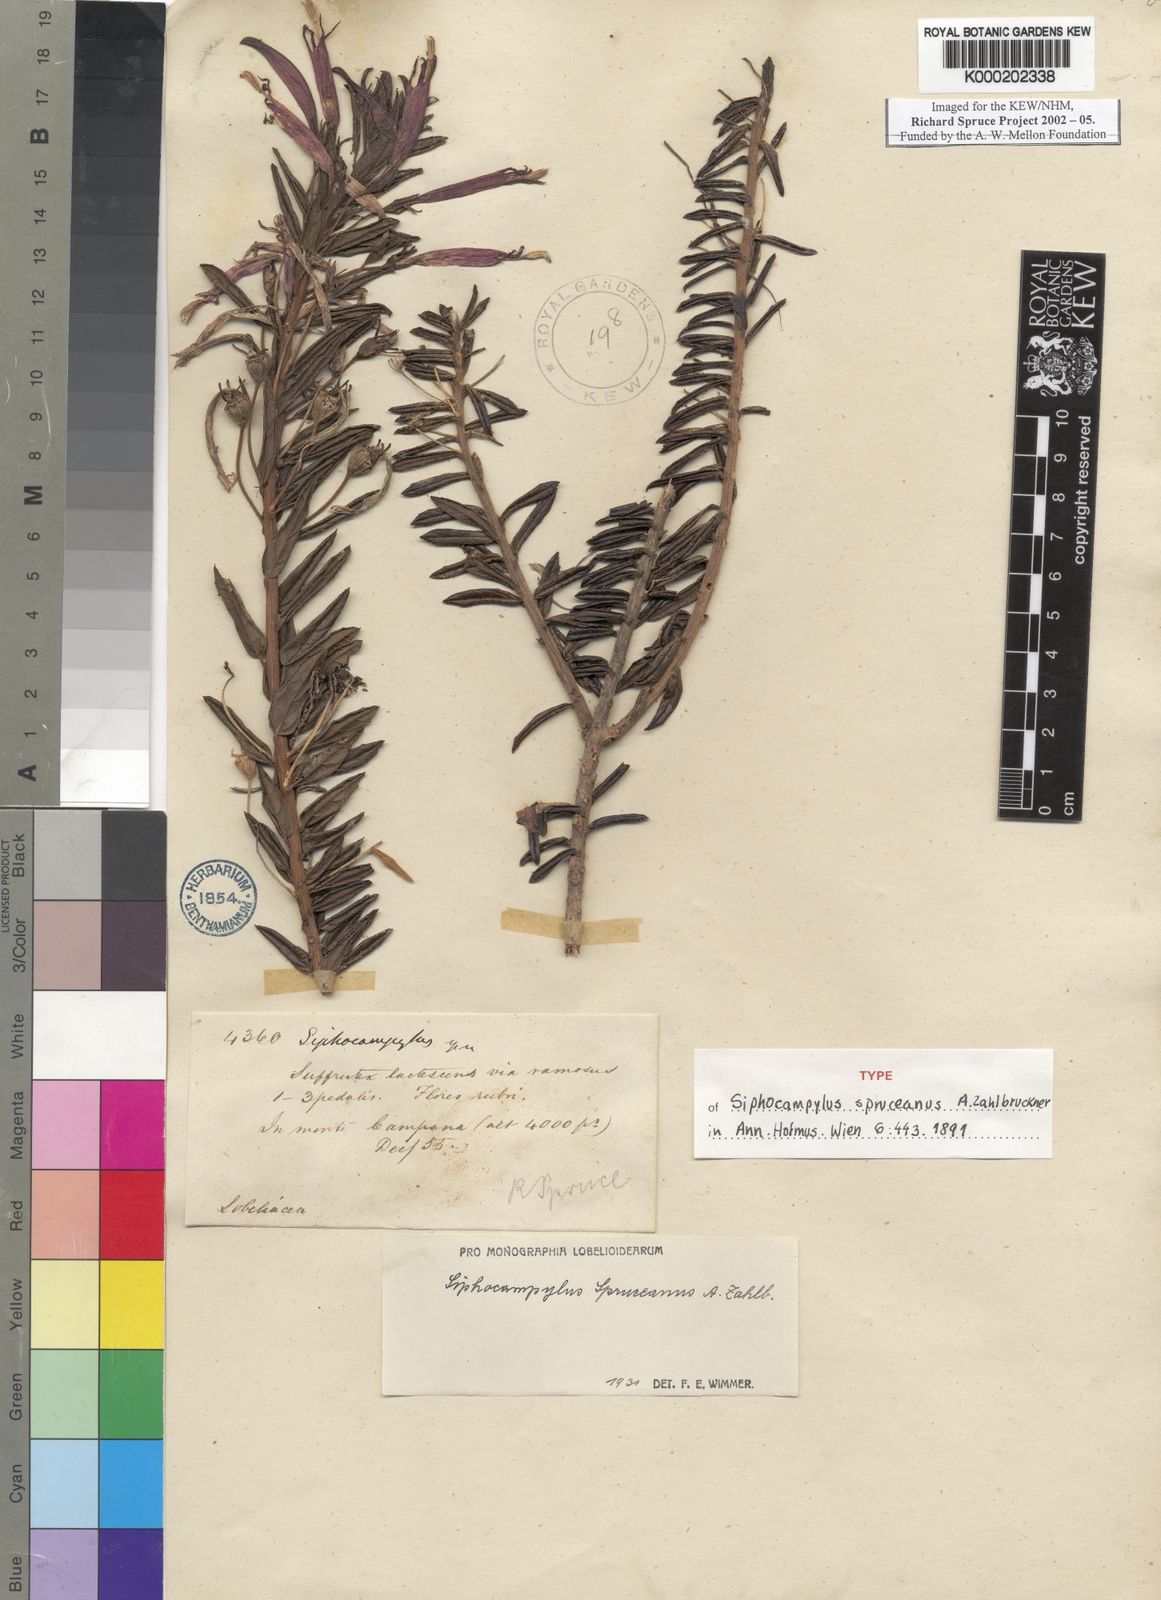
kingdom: Plantae
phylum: Tracheophyta
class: Magnoliopsida
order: Asterales
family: Campanulaceae
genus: Siphocampylus
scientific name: Siphocampylus spruceanus
